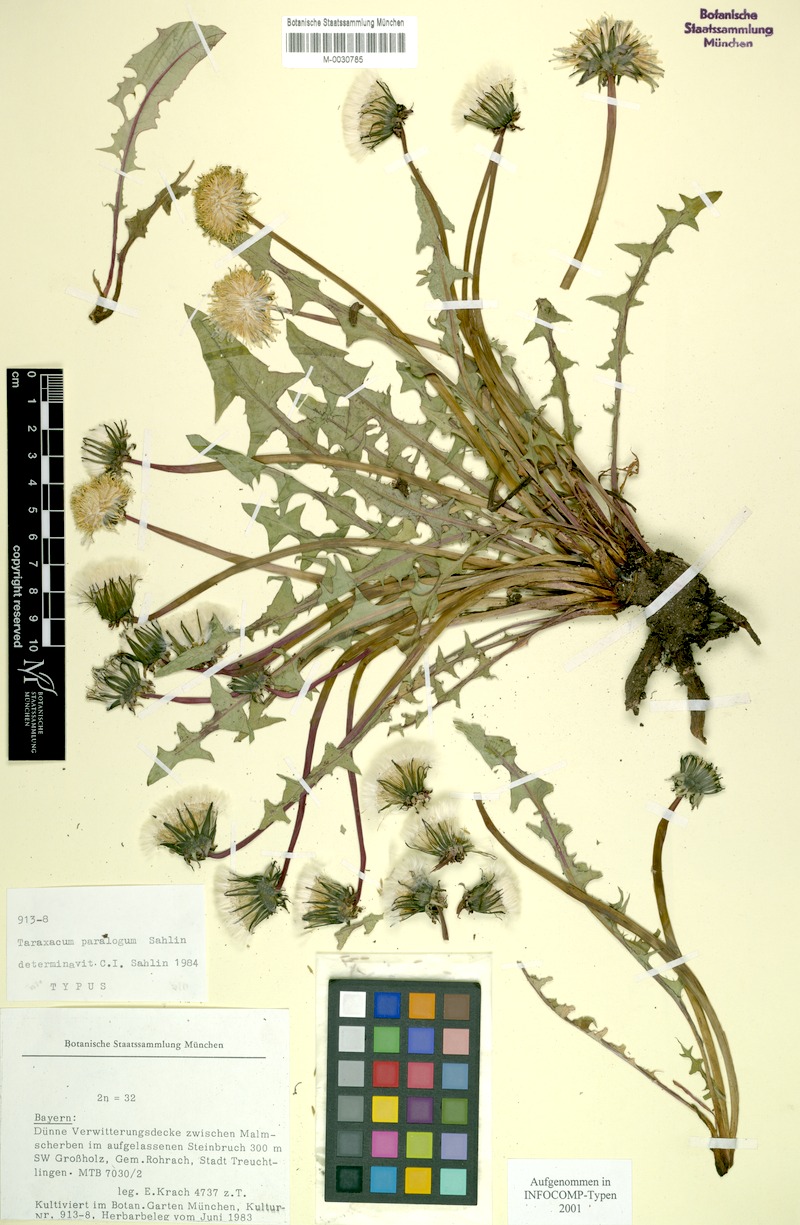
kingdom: Plantae
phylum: Tracheophyta
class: Magnoliopsida
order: Asterales
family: Asteraceae
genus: Taraxacum
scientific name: Taraxacum
